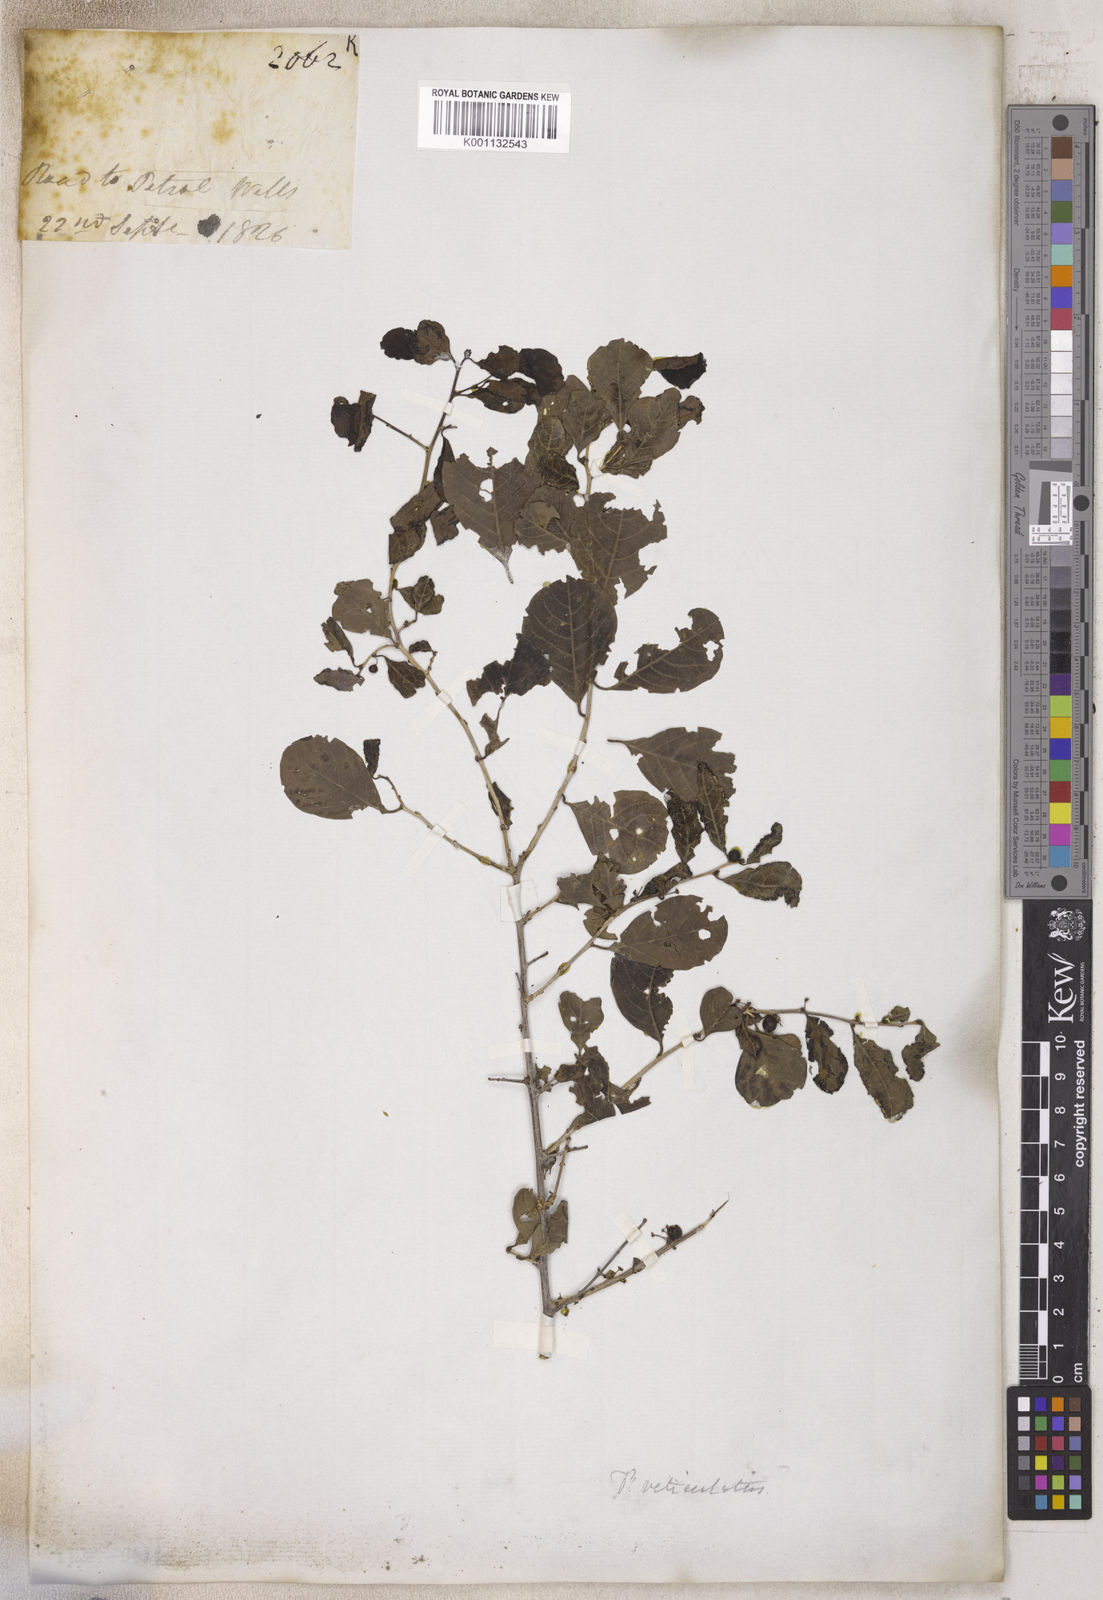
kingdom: Plantae
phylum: Tracheophyta
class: Magnoliopsida
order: Malpighiales
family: Phyllanthaceae
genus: Phyllanthus
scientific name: Phyllanthus
